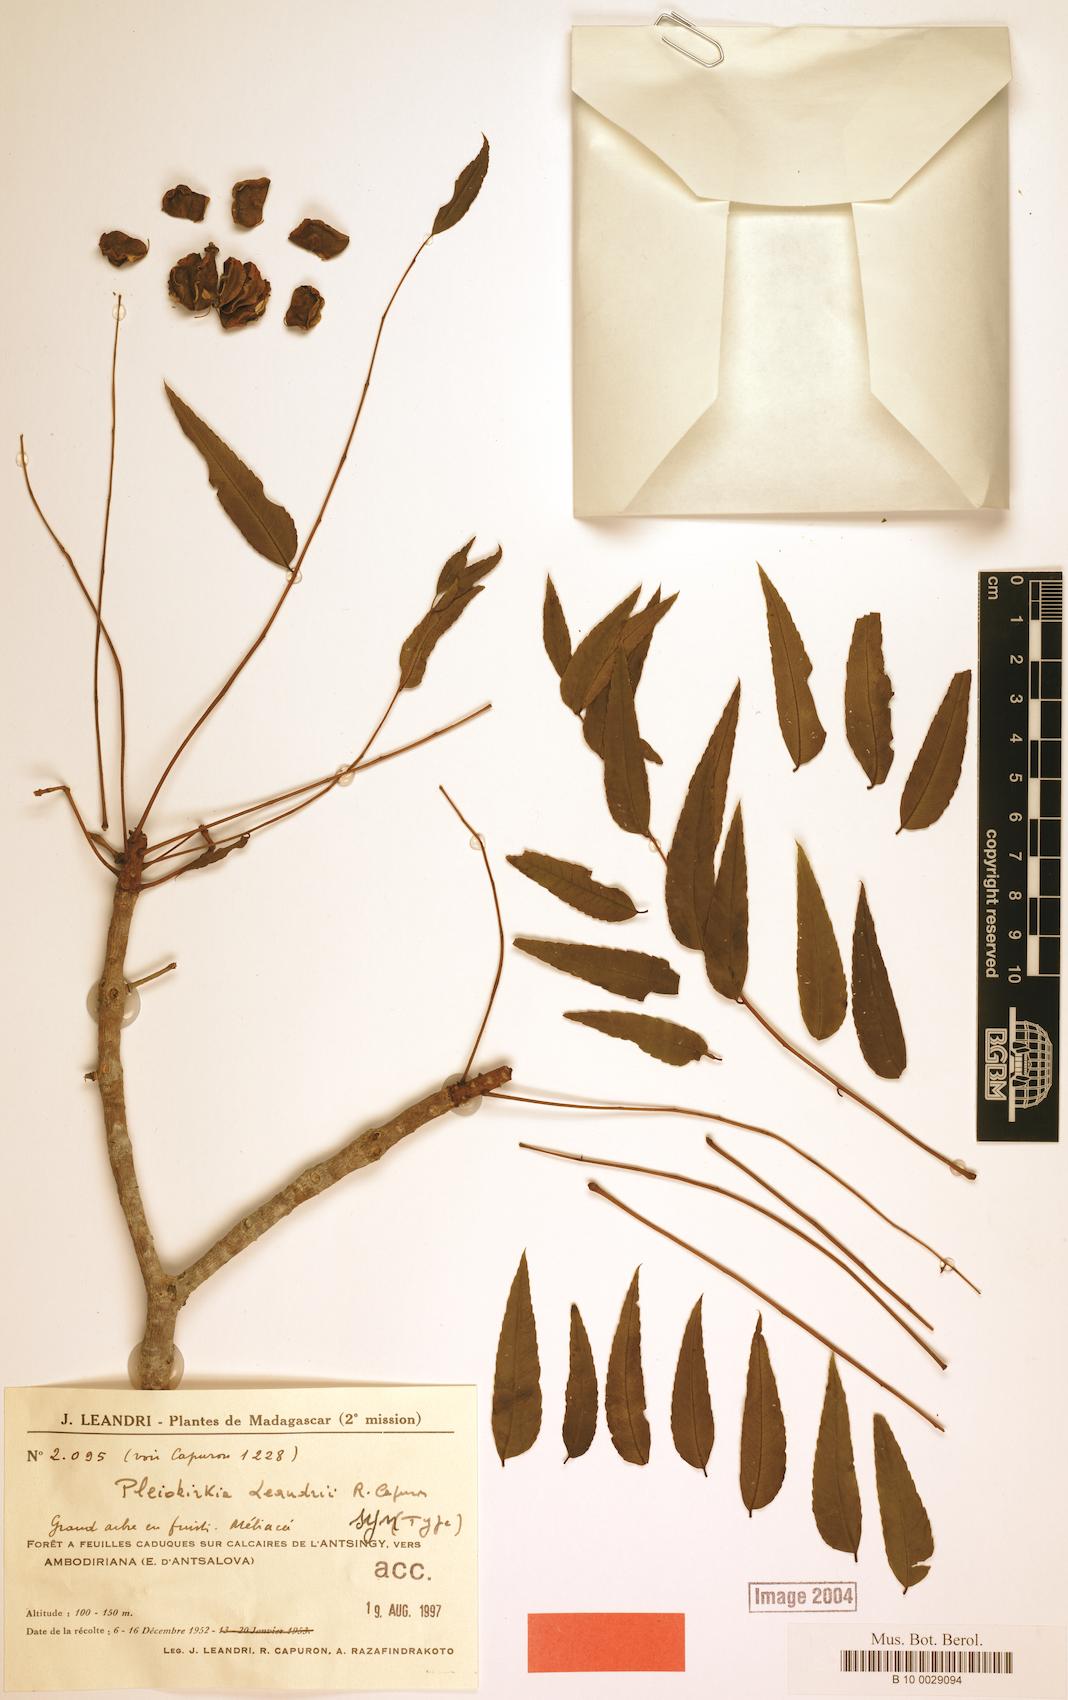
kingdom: Plantae
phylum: Tracheophyta
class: Magnoliopsida
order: Sapindales
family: Kirkiaceae
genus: Kirkia
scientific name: Kirkia leandrii
